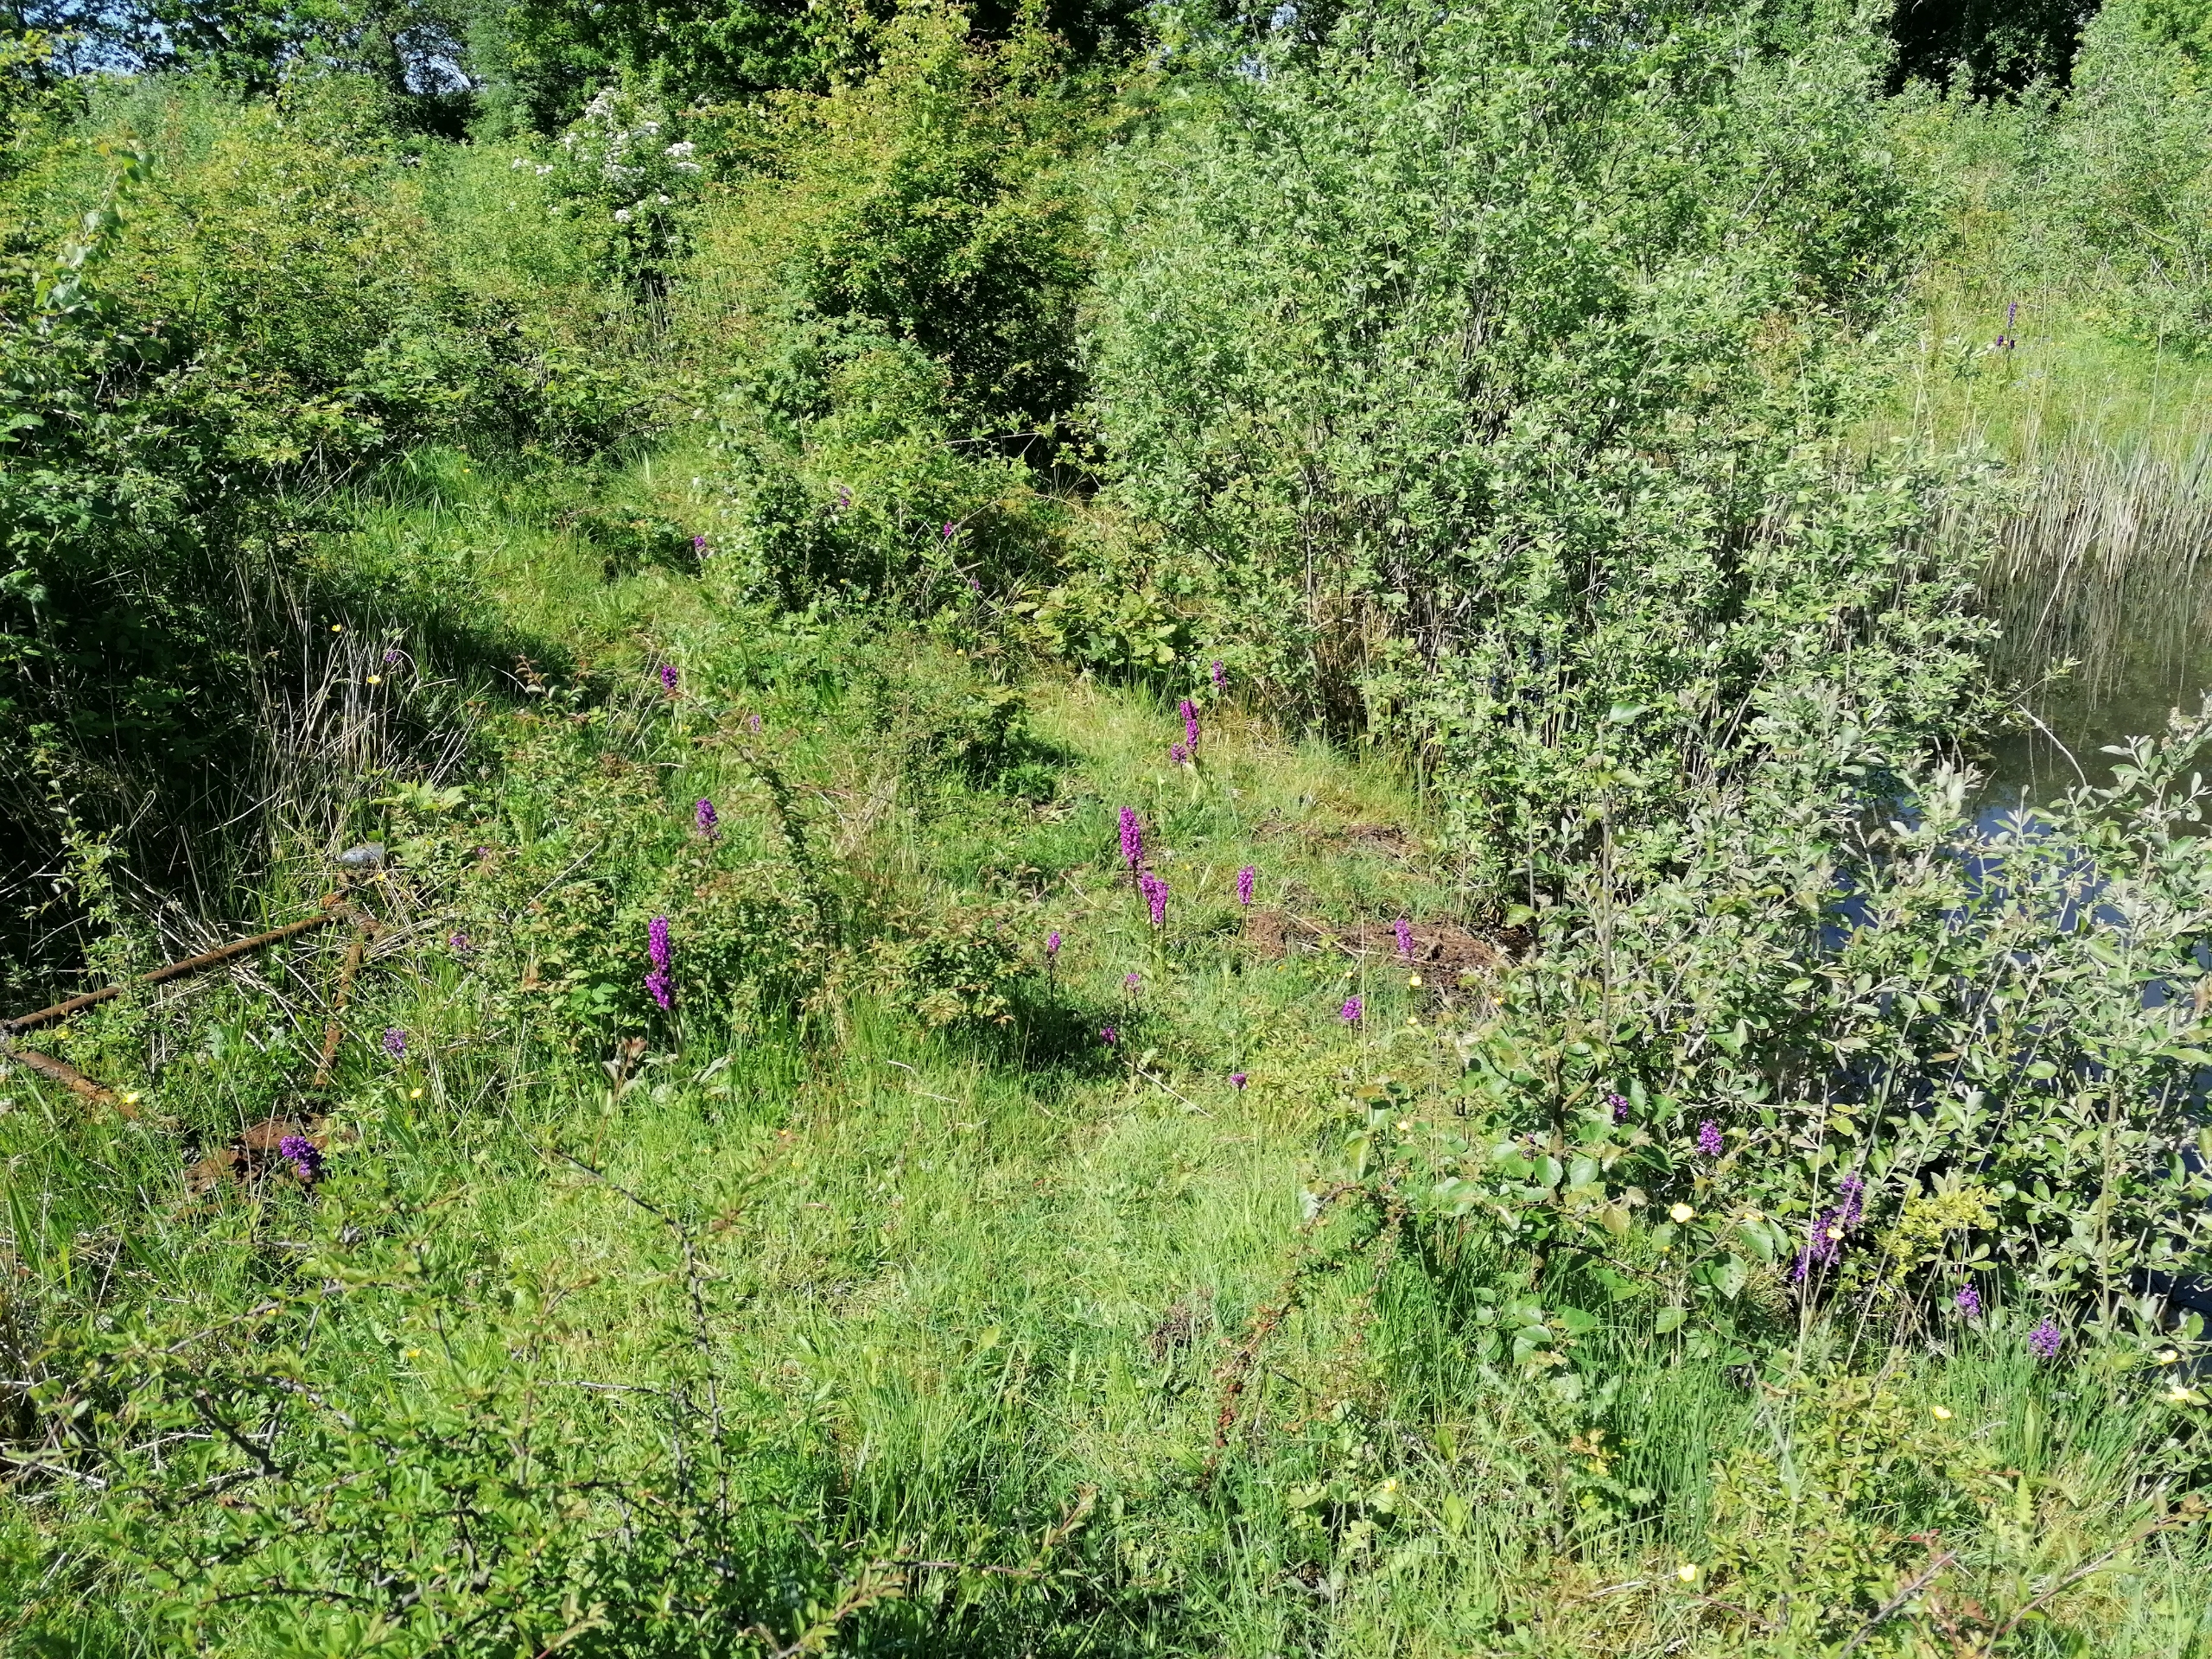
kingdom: Plantae
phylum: Tracheophyta
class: Liliopsida
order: Asparagales
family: Orchidaceae
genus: Dactylorhiza
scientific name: Dactylorhiza majalis
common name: Maj-gøgeurt
